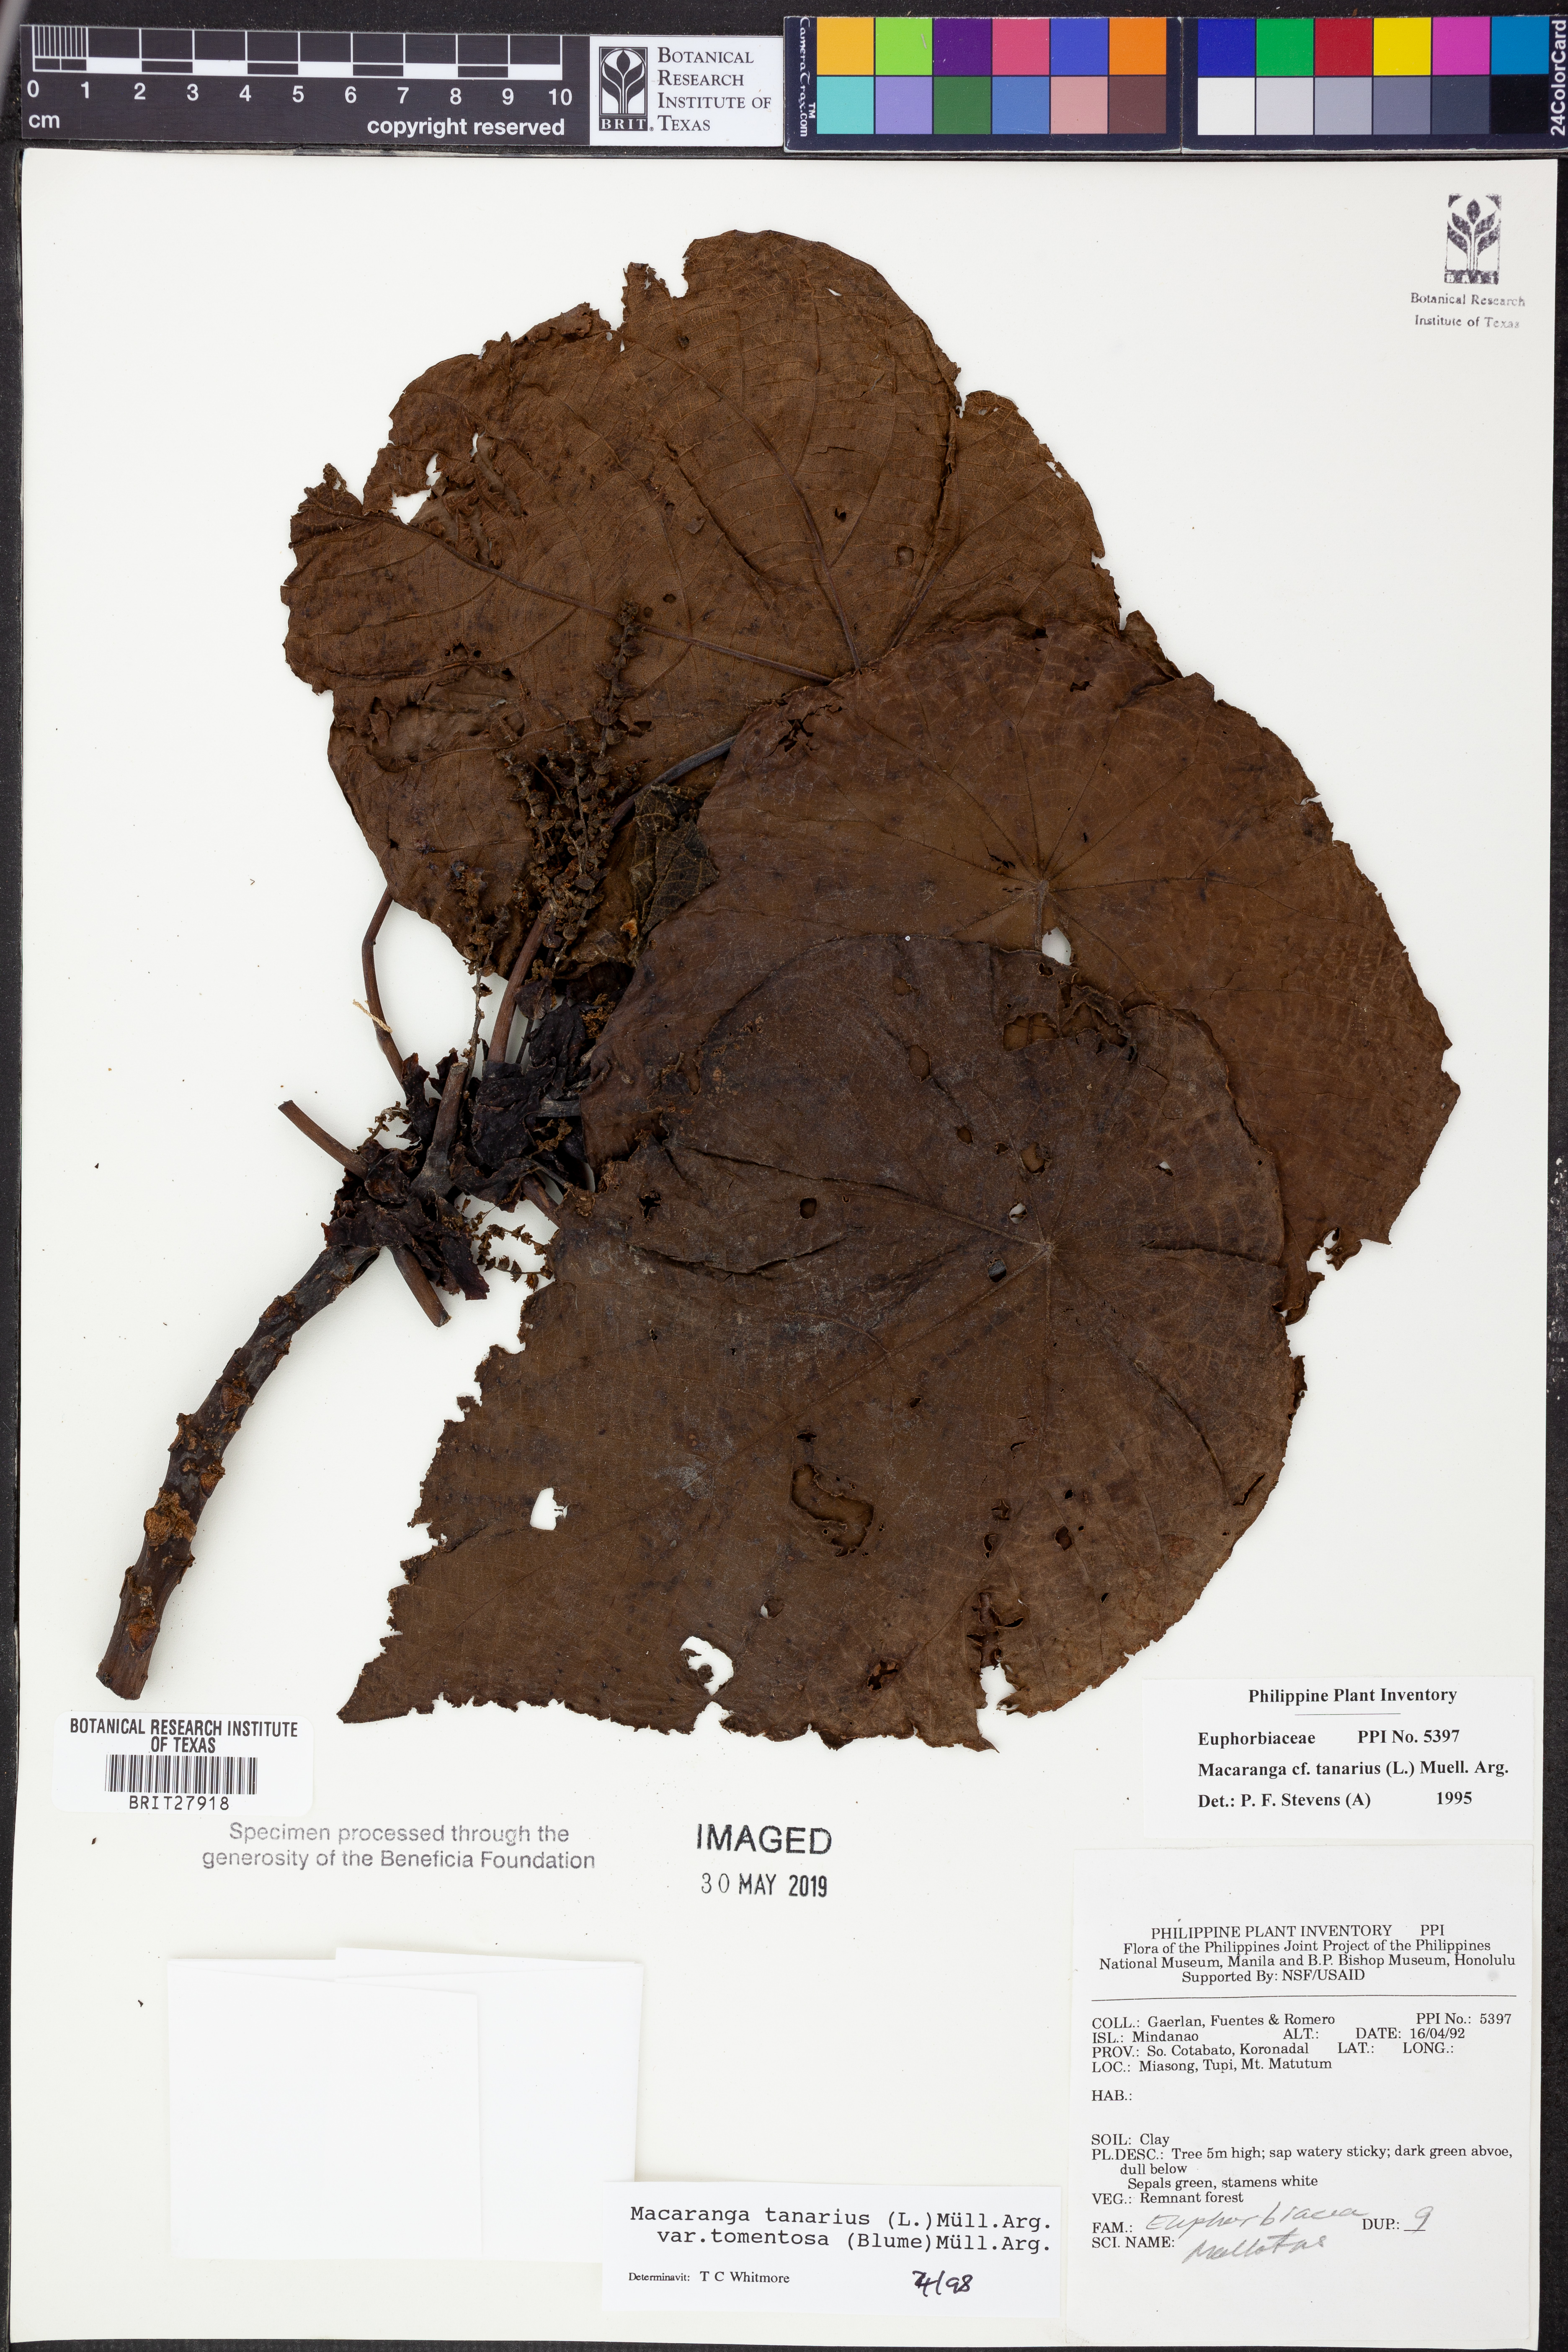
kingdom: Plantae
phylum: Tracheophyta
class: Magnoliopsida
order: Malpighiales
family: Euphorbiaceae
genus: Macaranga
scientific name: Macaranga tanarius
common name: Parasol leaf tree
